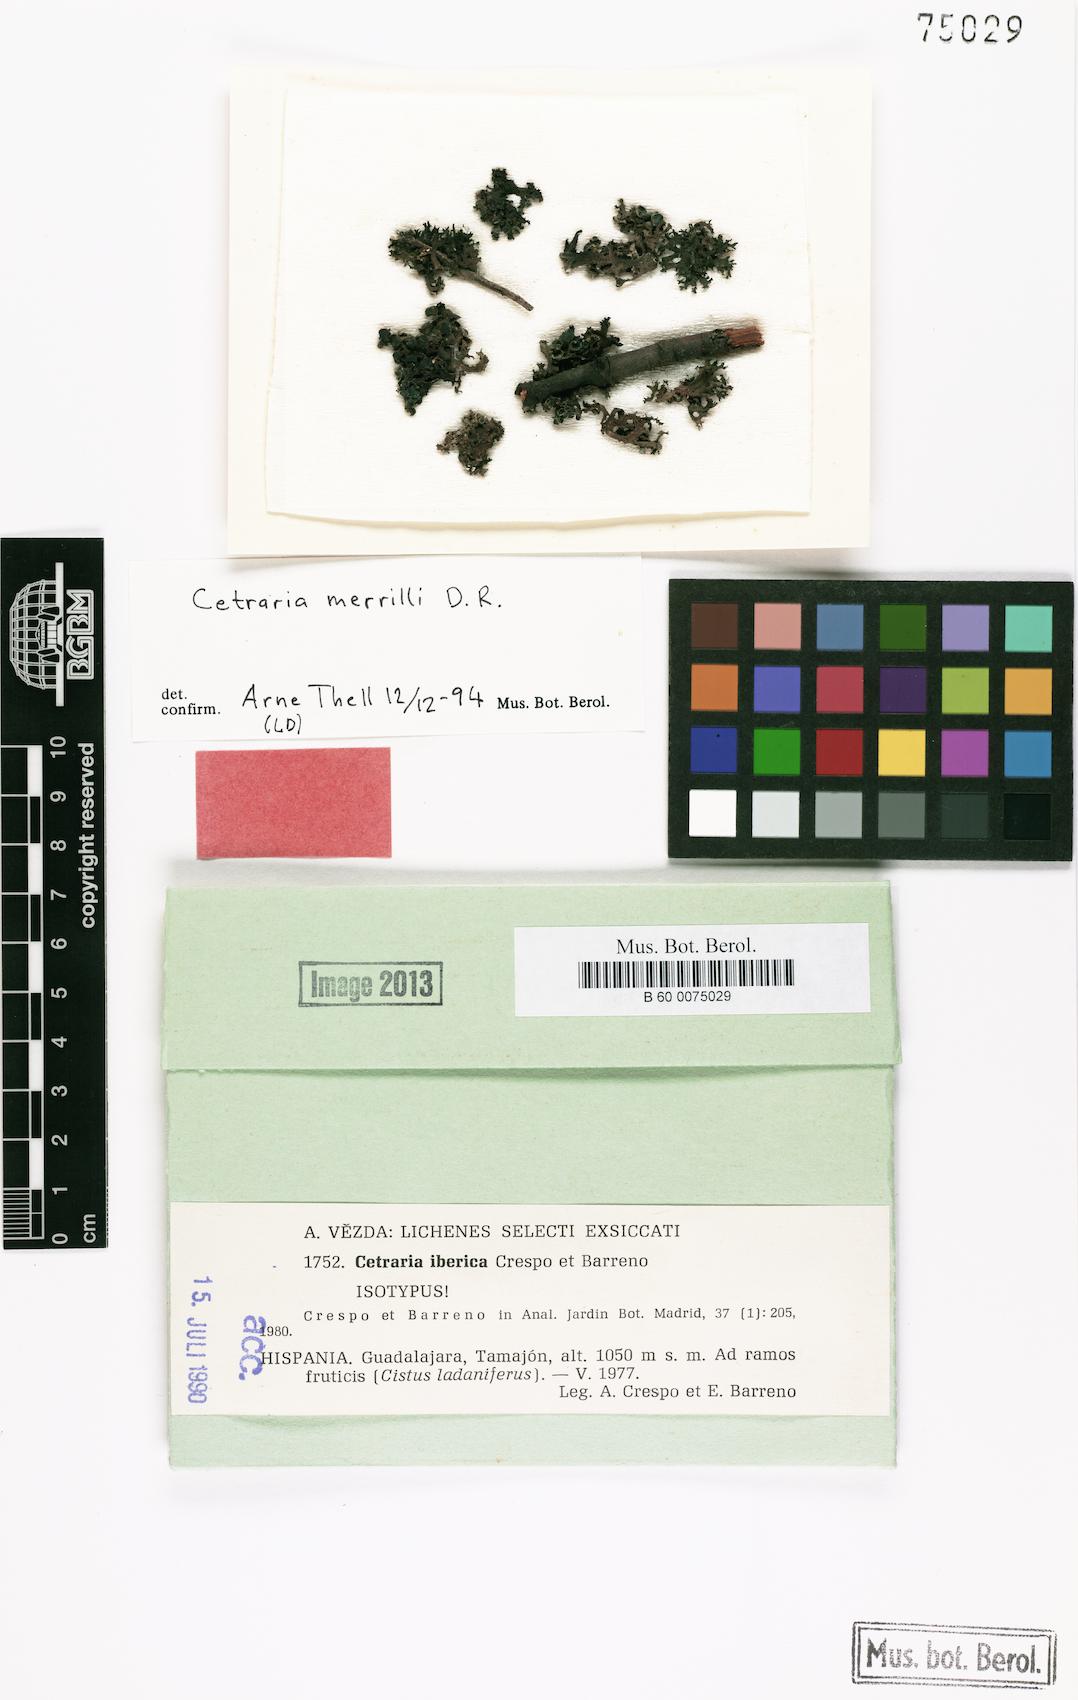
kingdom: Fungi
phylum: Ascomycota
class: Lecanoromycetes
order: Lecanorales
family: Parmeliaceae
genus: Nephromopsis
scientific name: Nephromopsis iberica
